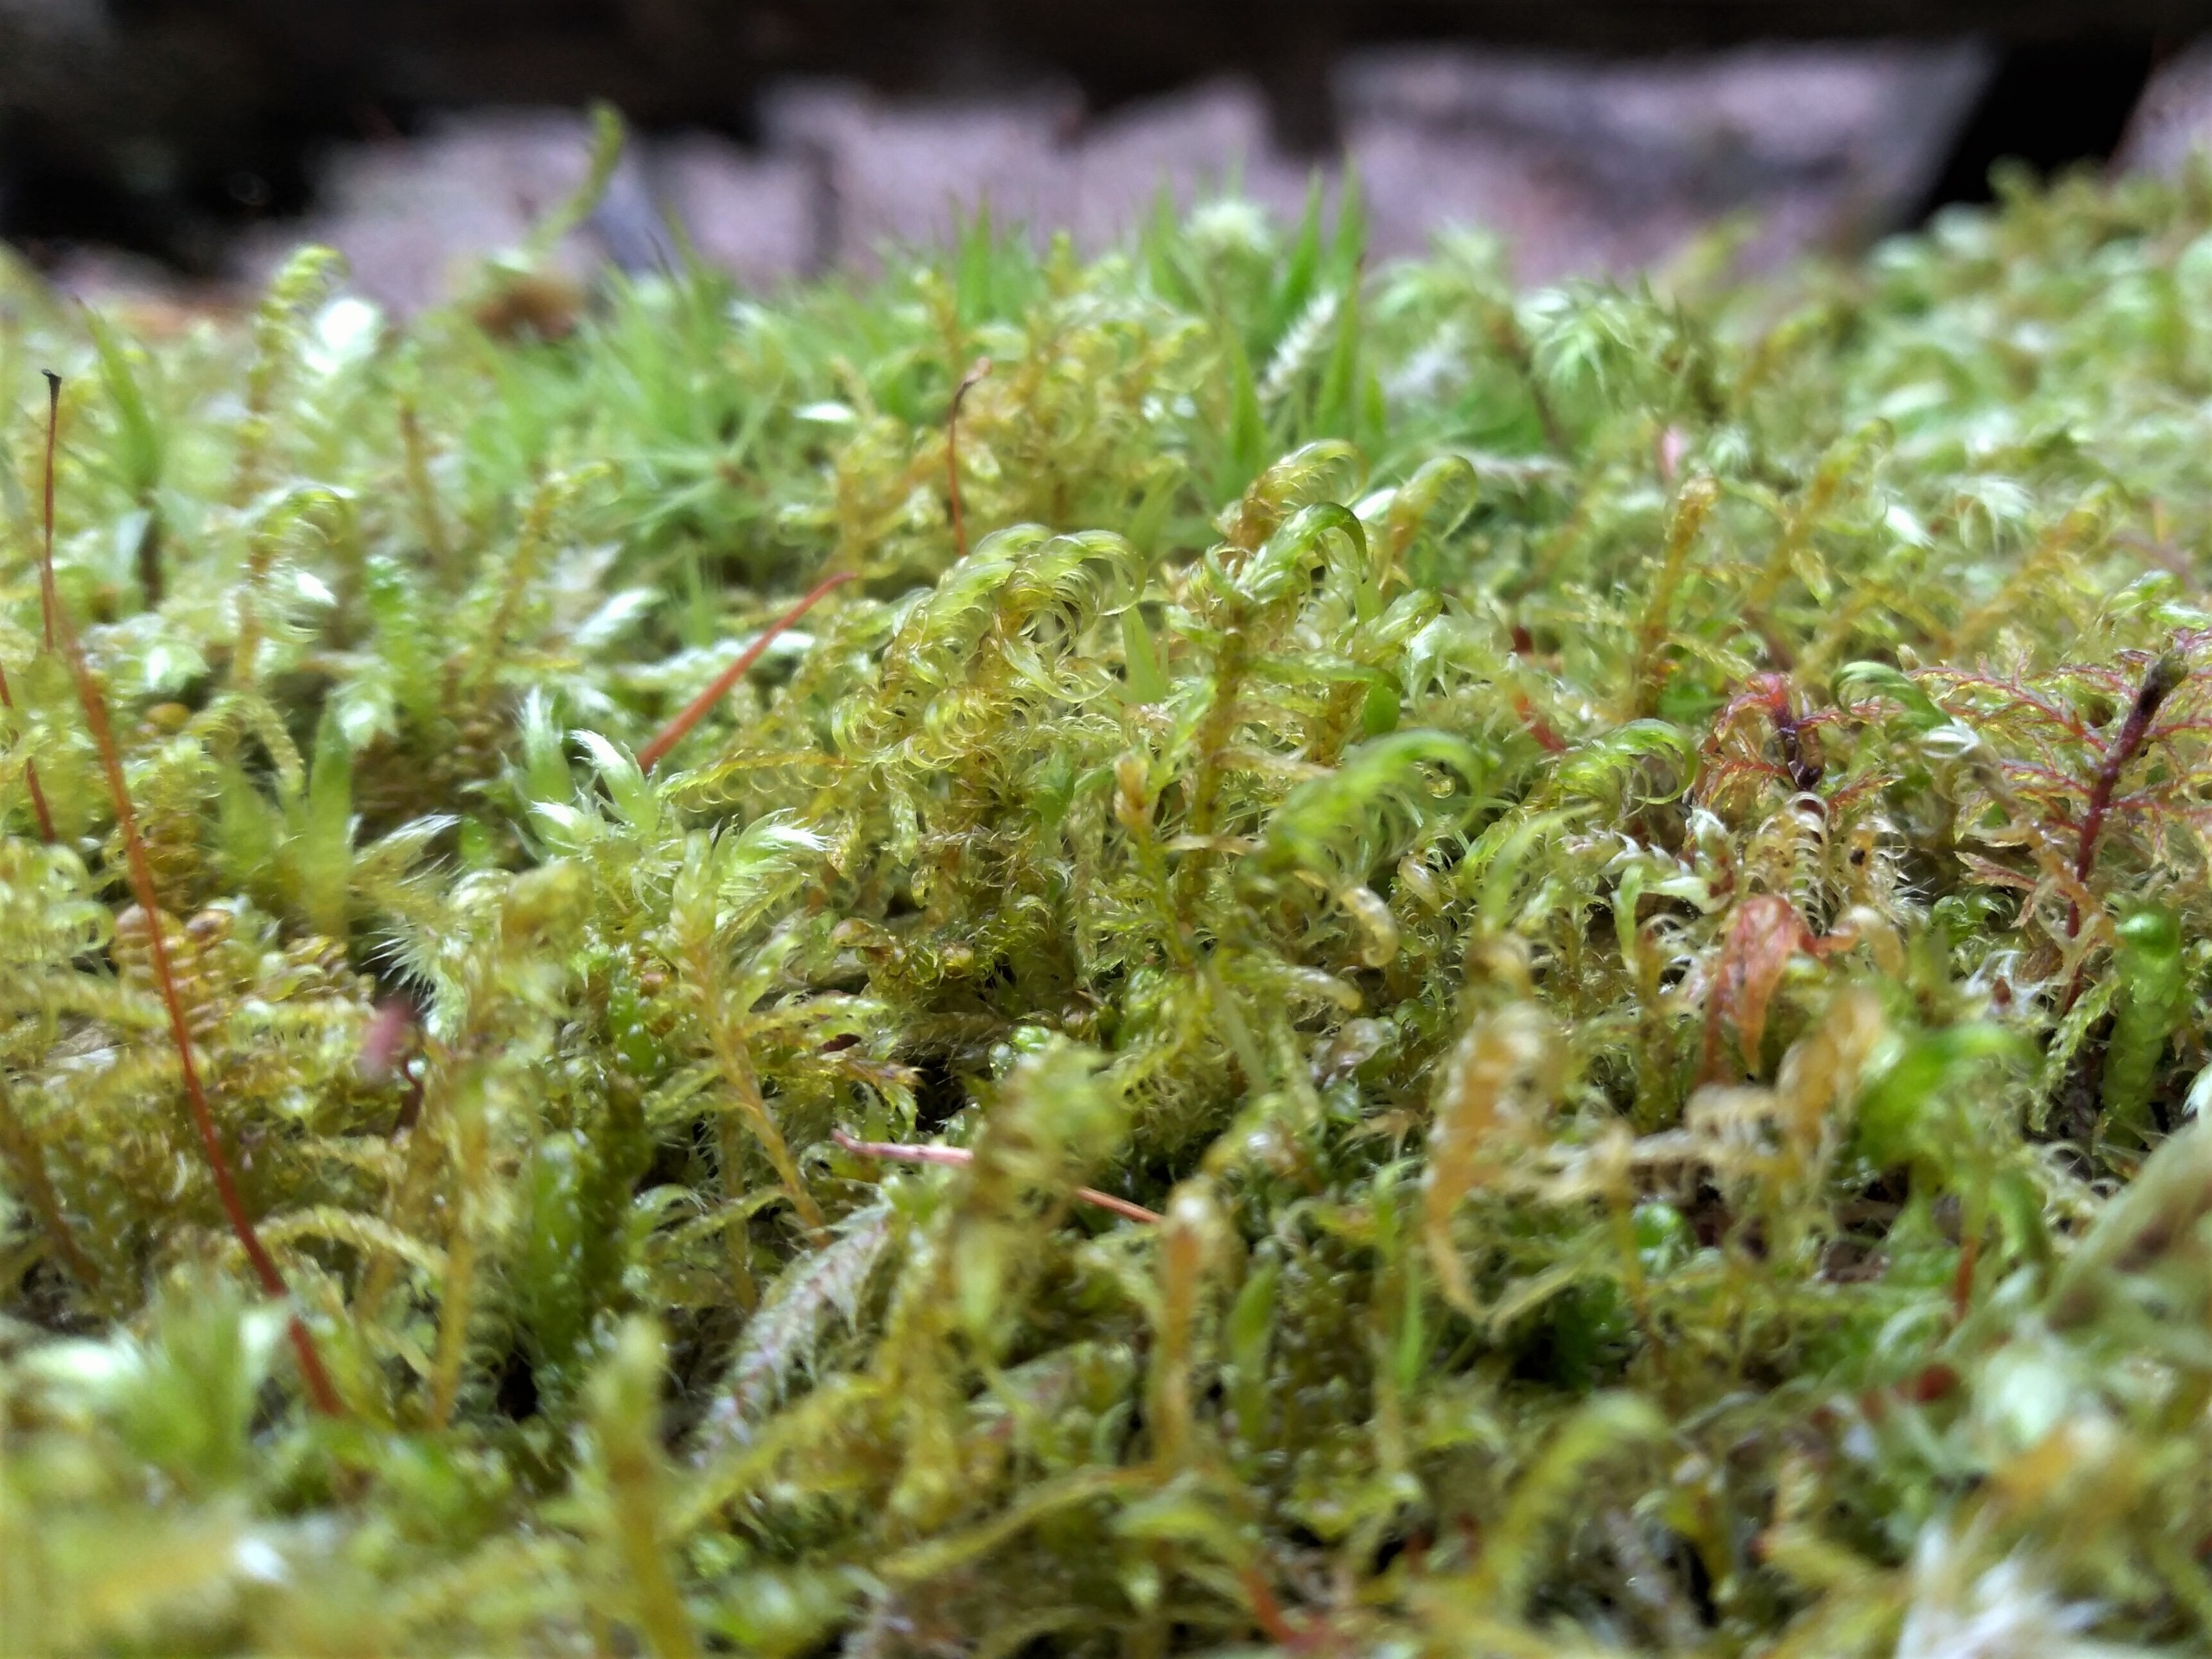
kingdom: Plantae
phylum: Bryophyta
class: Bryopsida
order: Hypnales
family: Scorpidiaceae
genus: Sanionia
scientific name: Sanionia uncinata
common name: Stribet krogblad
